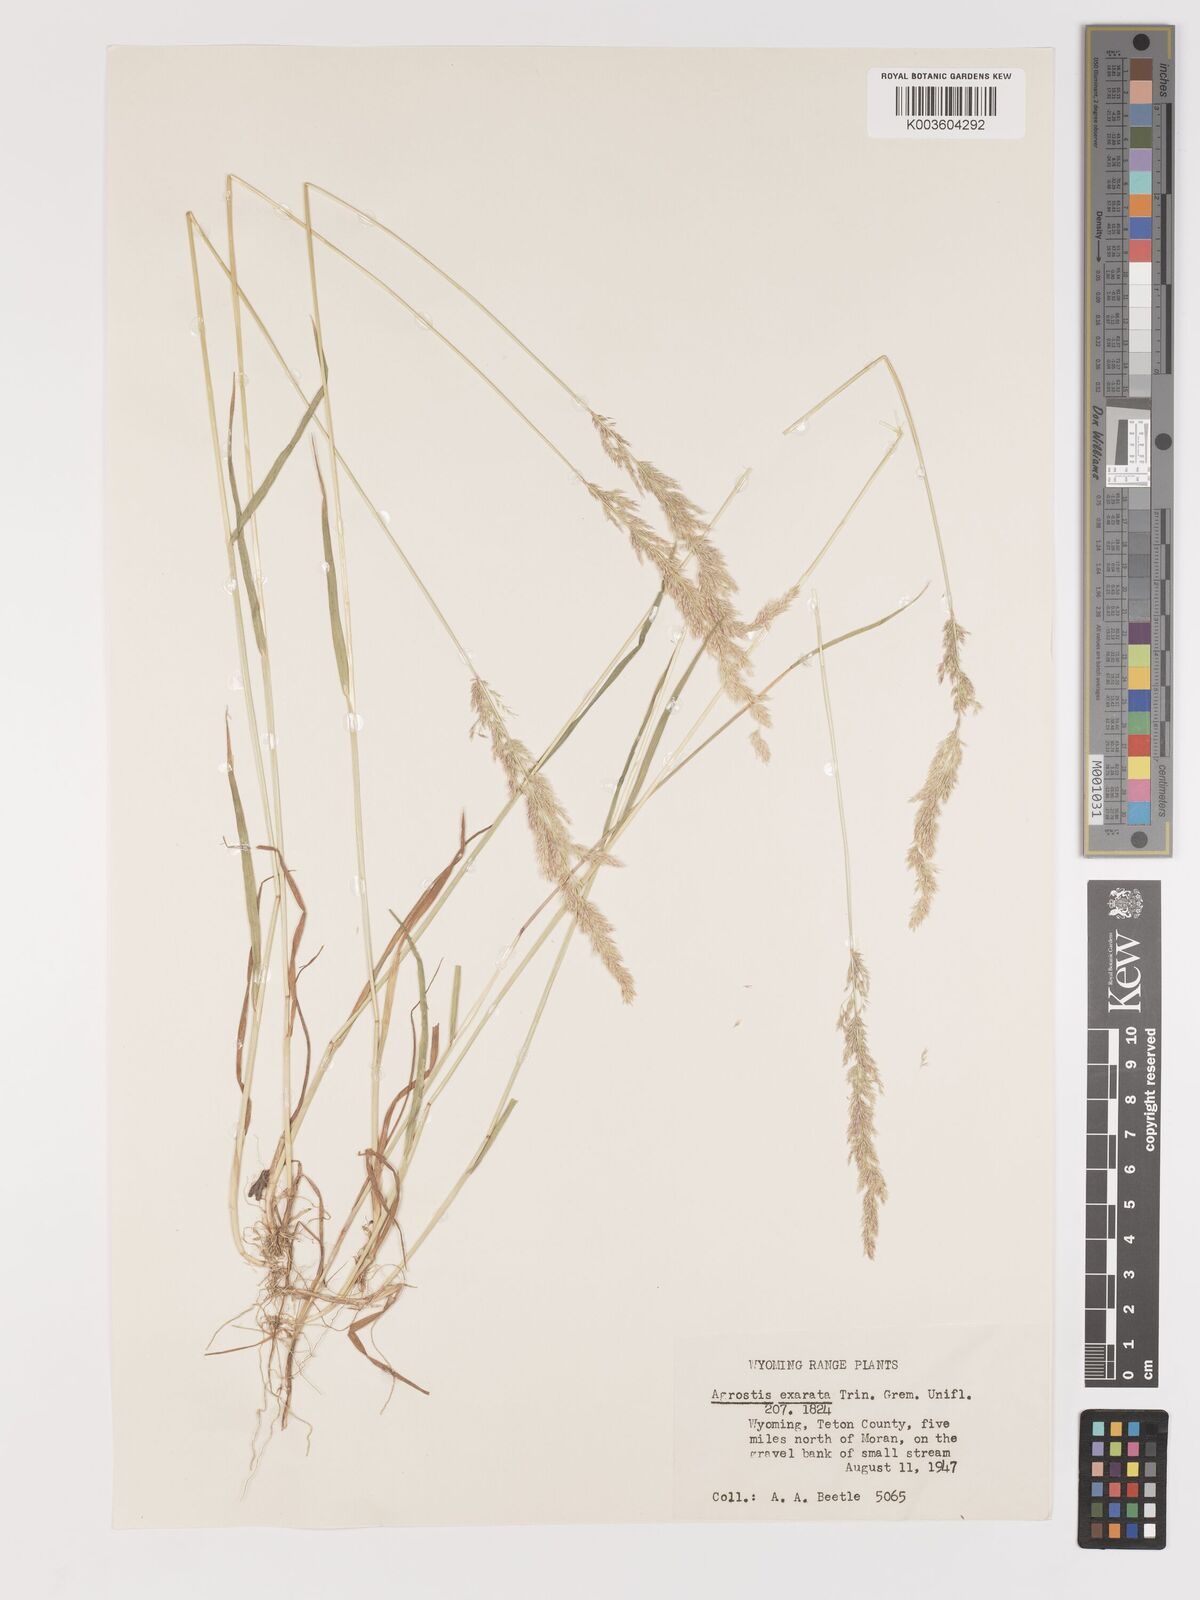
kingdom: Plantae
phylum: Tracheophyta
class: Liliopsida
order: Poales
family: Poaceae
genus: Agrostis
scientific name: Agrostis exarata
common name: Spike bent
